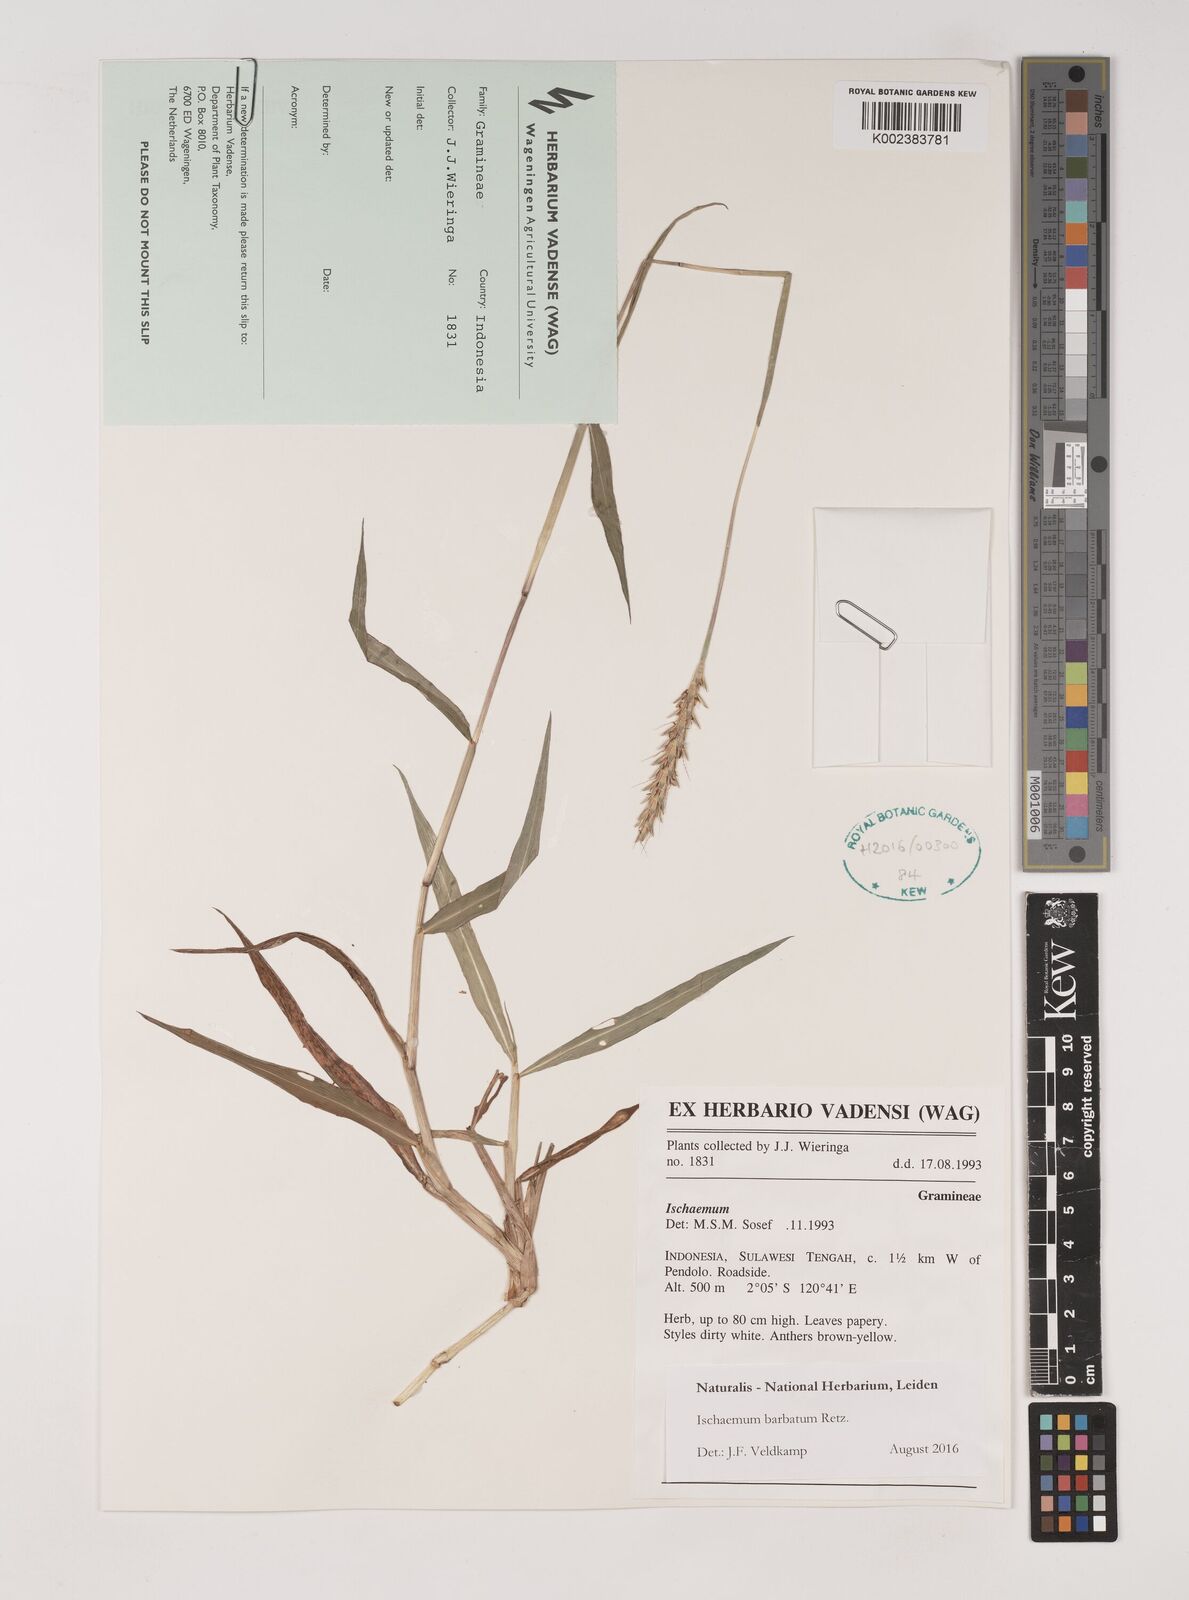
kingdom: Plantae
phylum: Tracheophyta
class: Liliopsida
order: Poales
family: Poaceae
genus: Ischaemum
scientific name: Ischaemum barbatum
